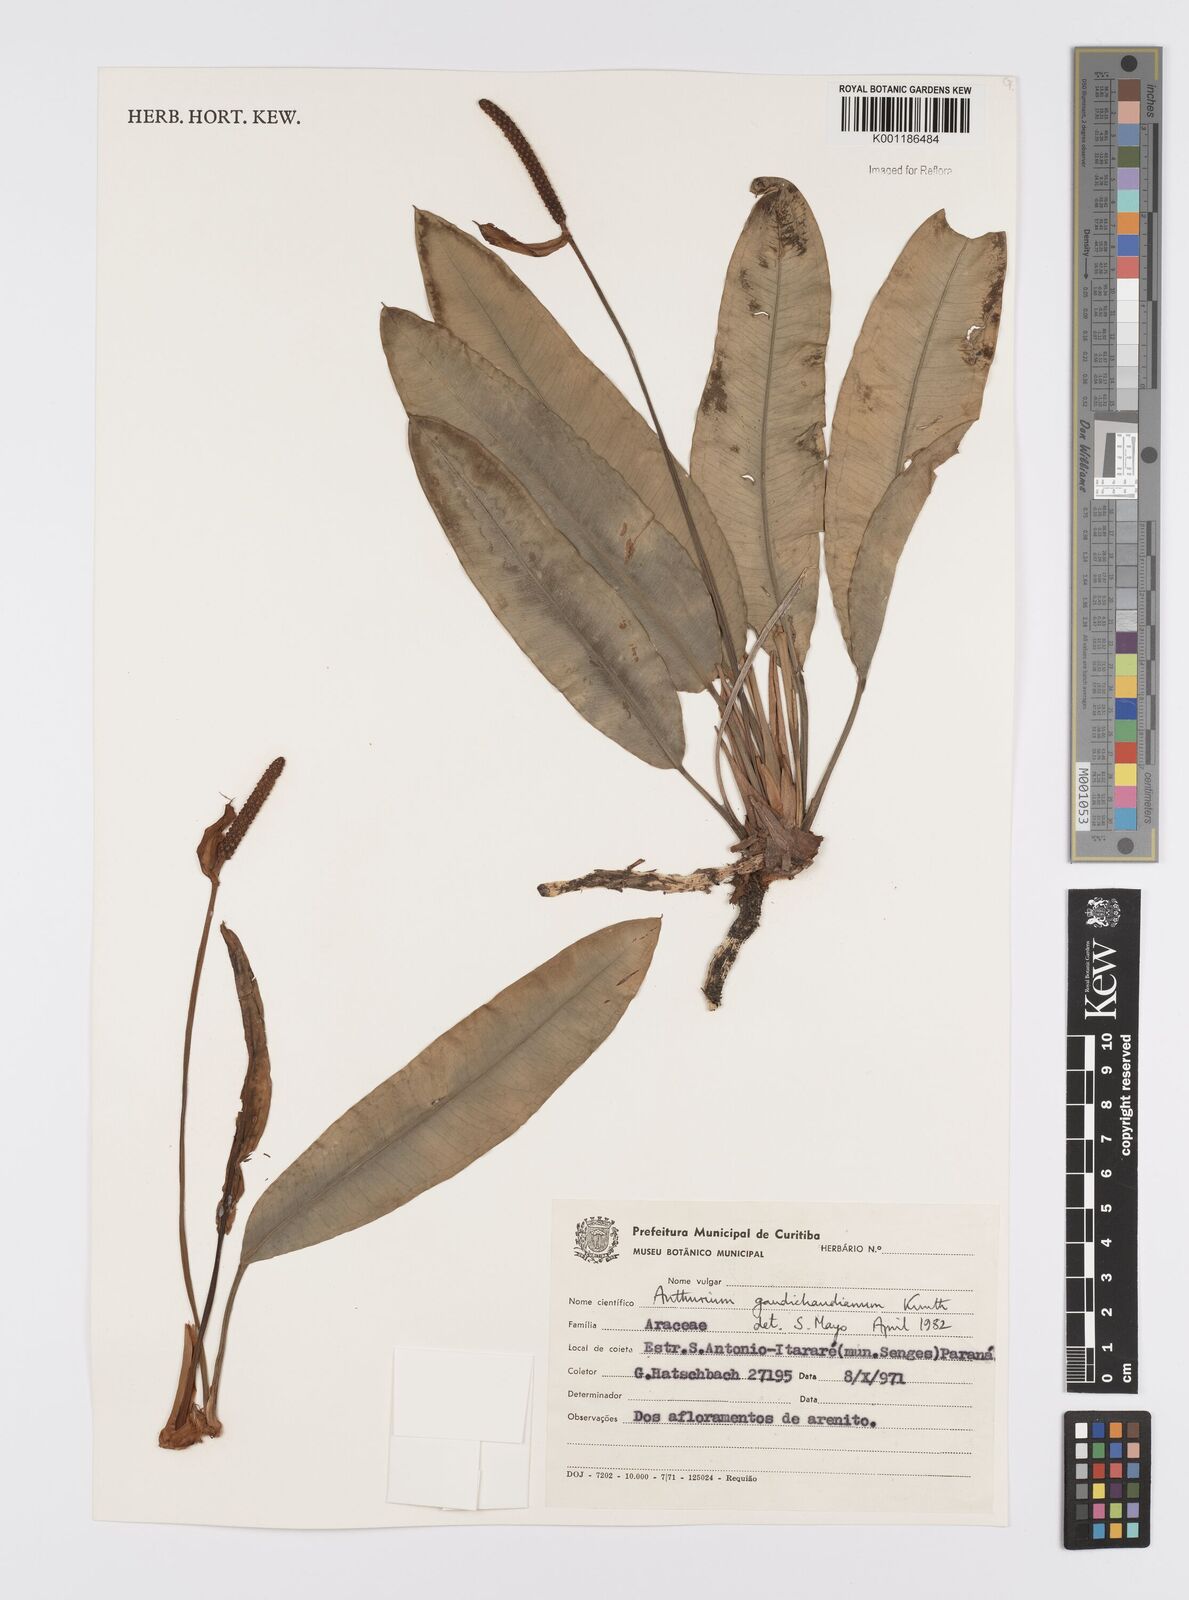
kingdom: Plantae
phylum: Tracheophyta
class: Liliopsida
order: Alismatales
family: Araceae
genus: Anthurium
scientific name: Anthurium gaudichaudianum
